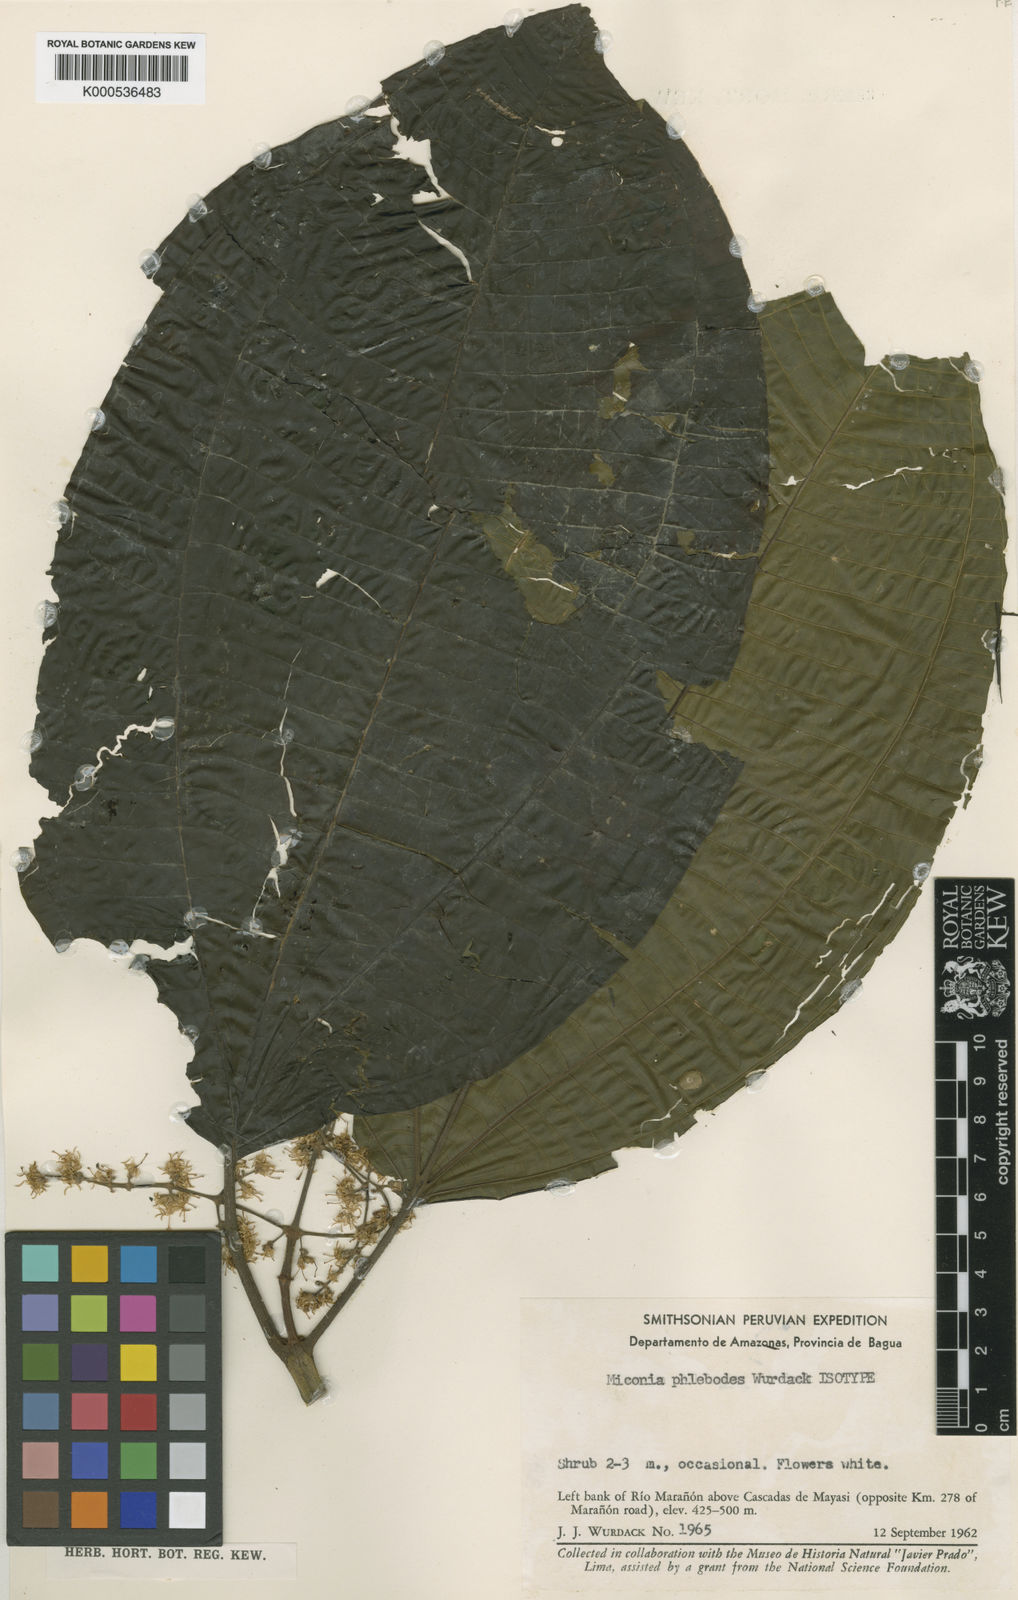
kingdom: Plantae
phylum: Tracheophyta
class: Magnoliopsida
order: Myrtales
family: Melastomataceae
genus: Miconia
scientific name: Miconia phlebodes
